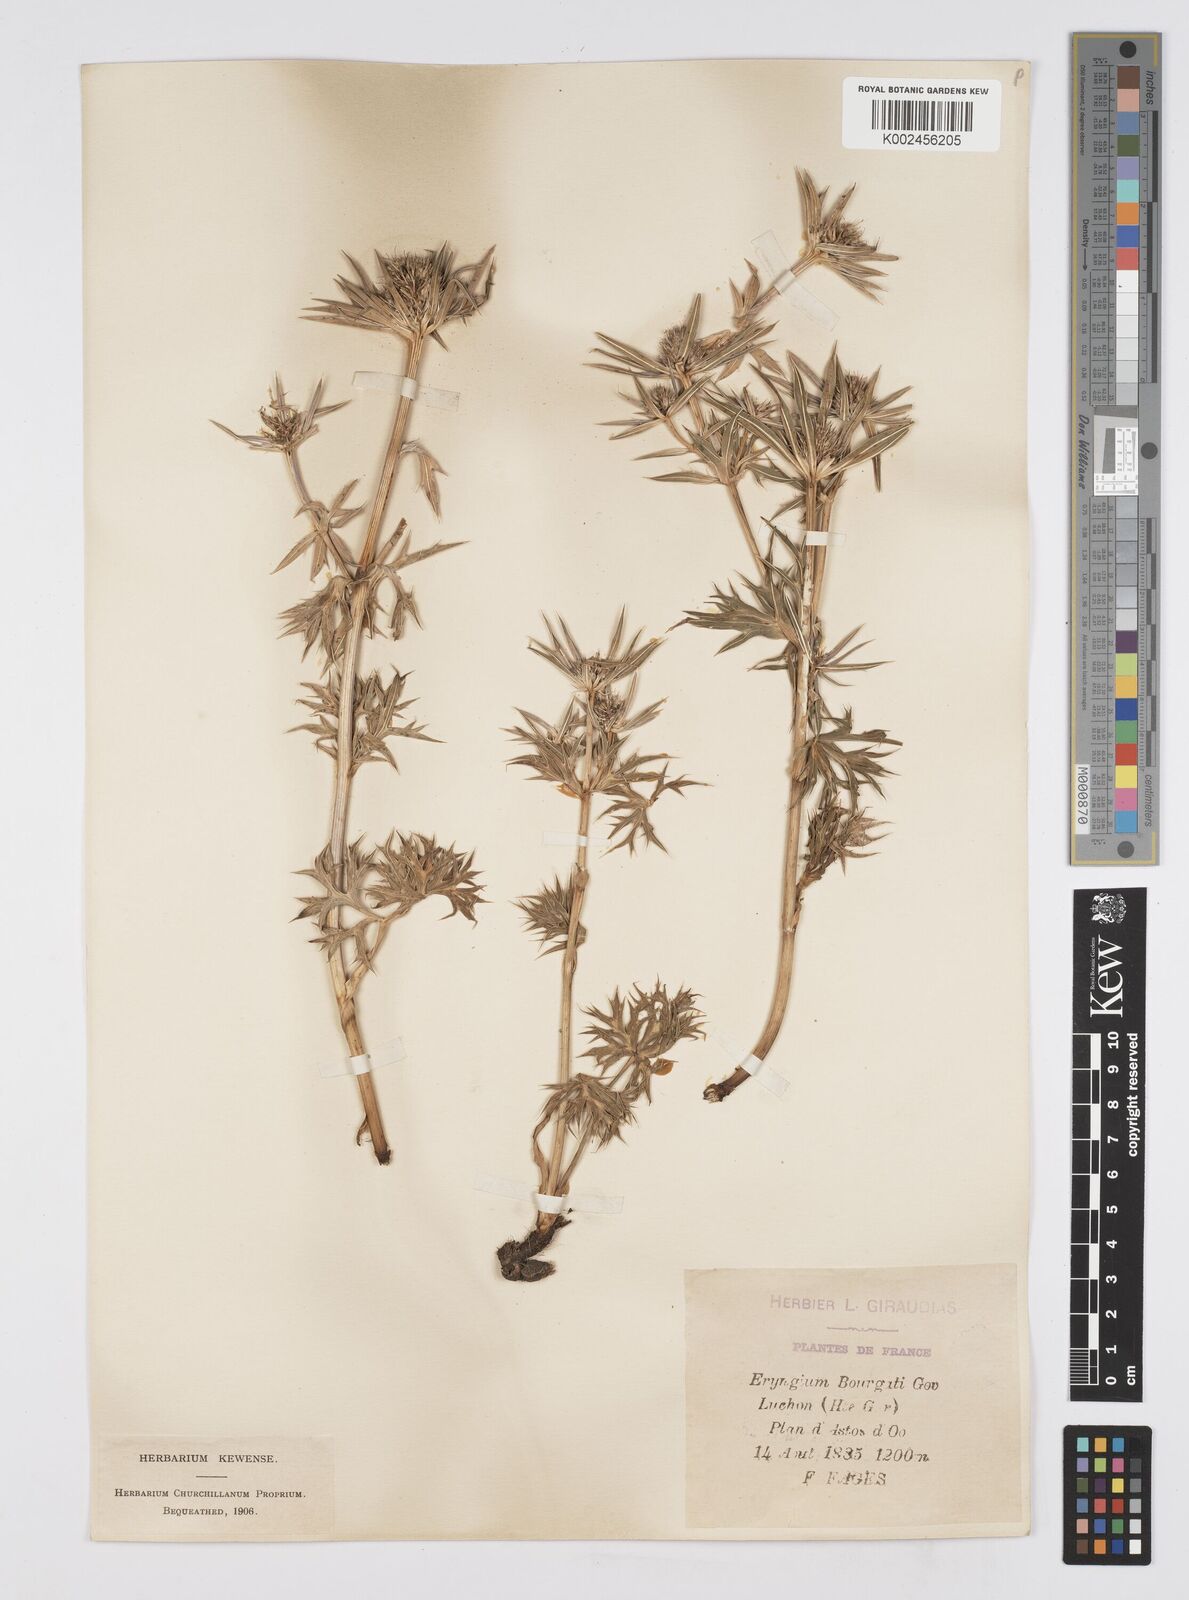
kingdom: Plantae
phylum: Tracheophyta
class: Magnoliopsida
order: Apiales
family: Apiaceae
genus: Eryngium
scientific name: Eryngium bourgatii
